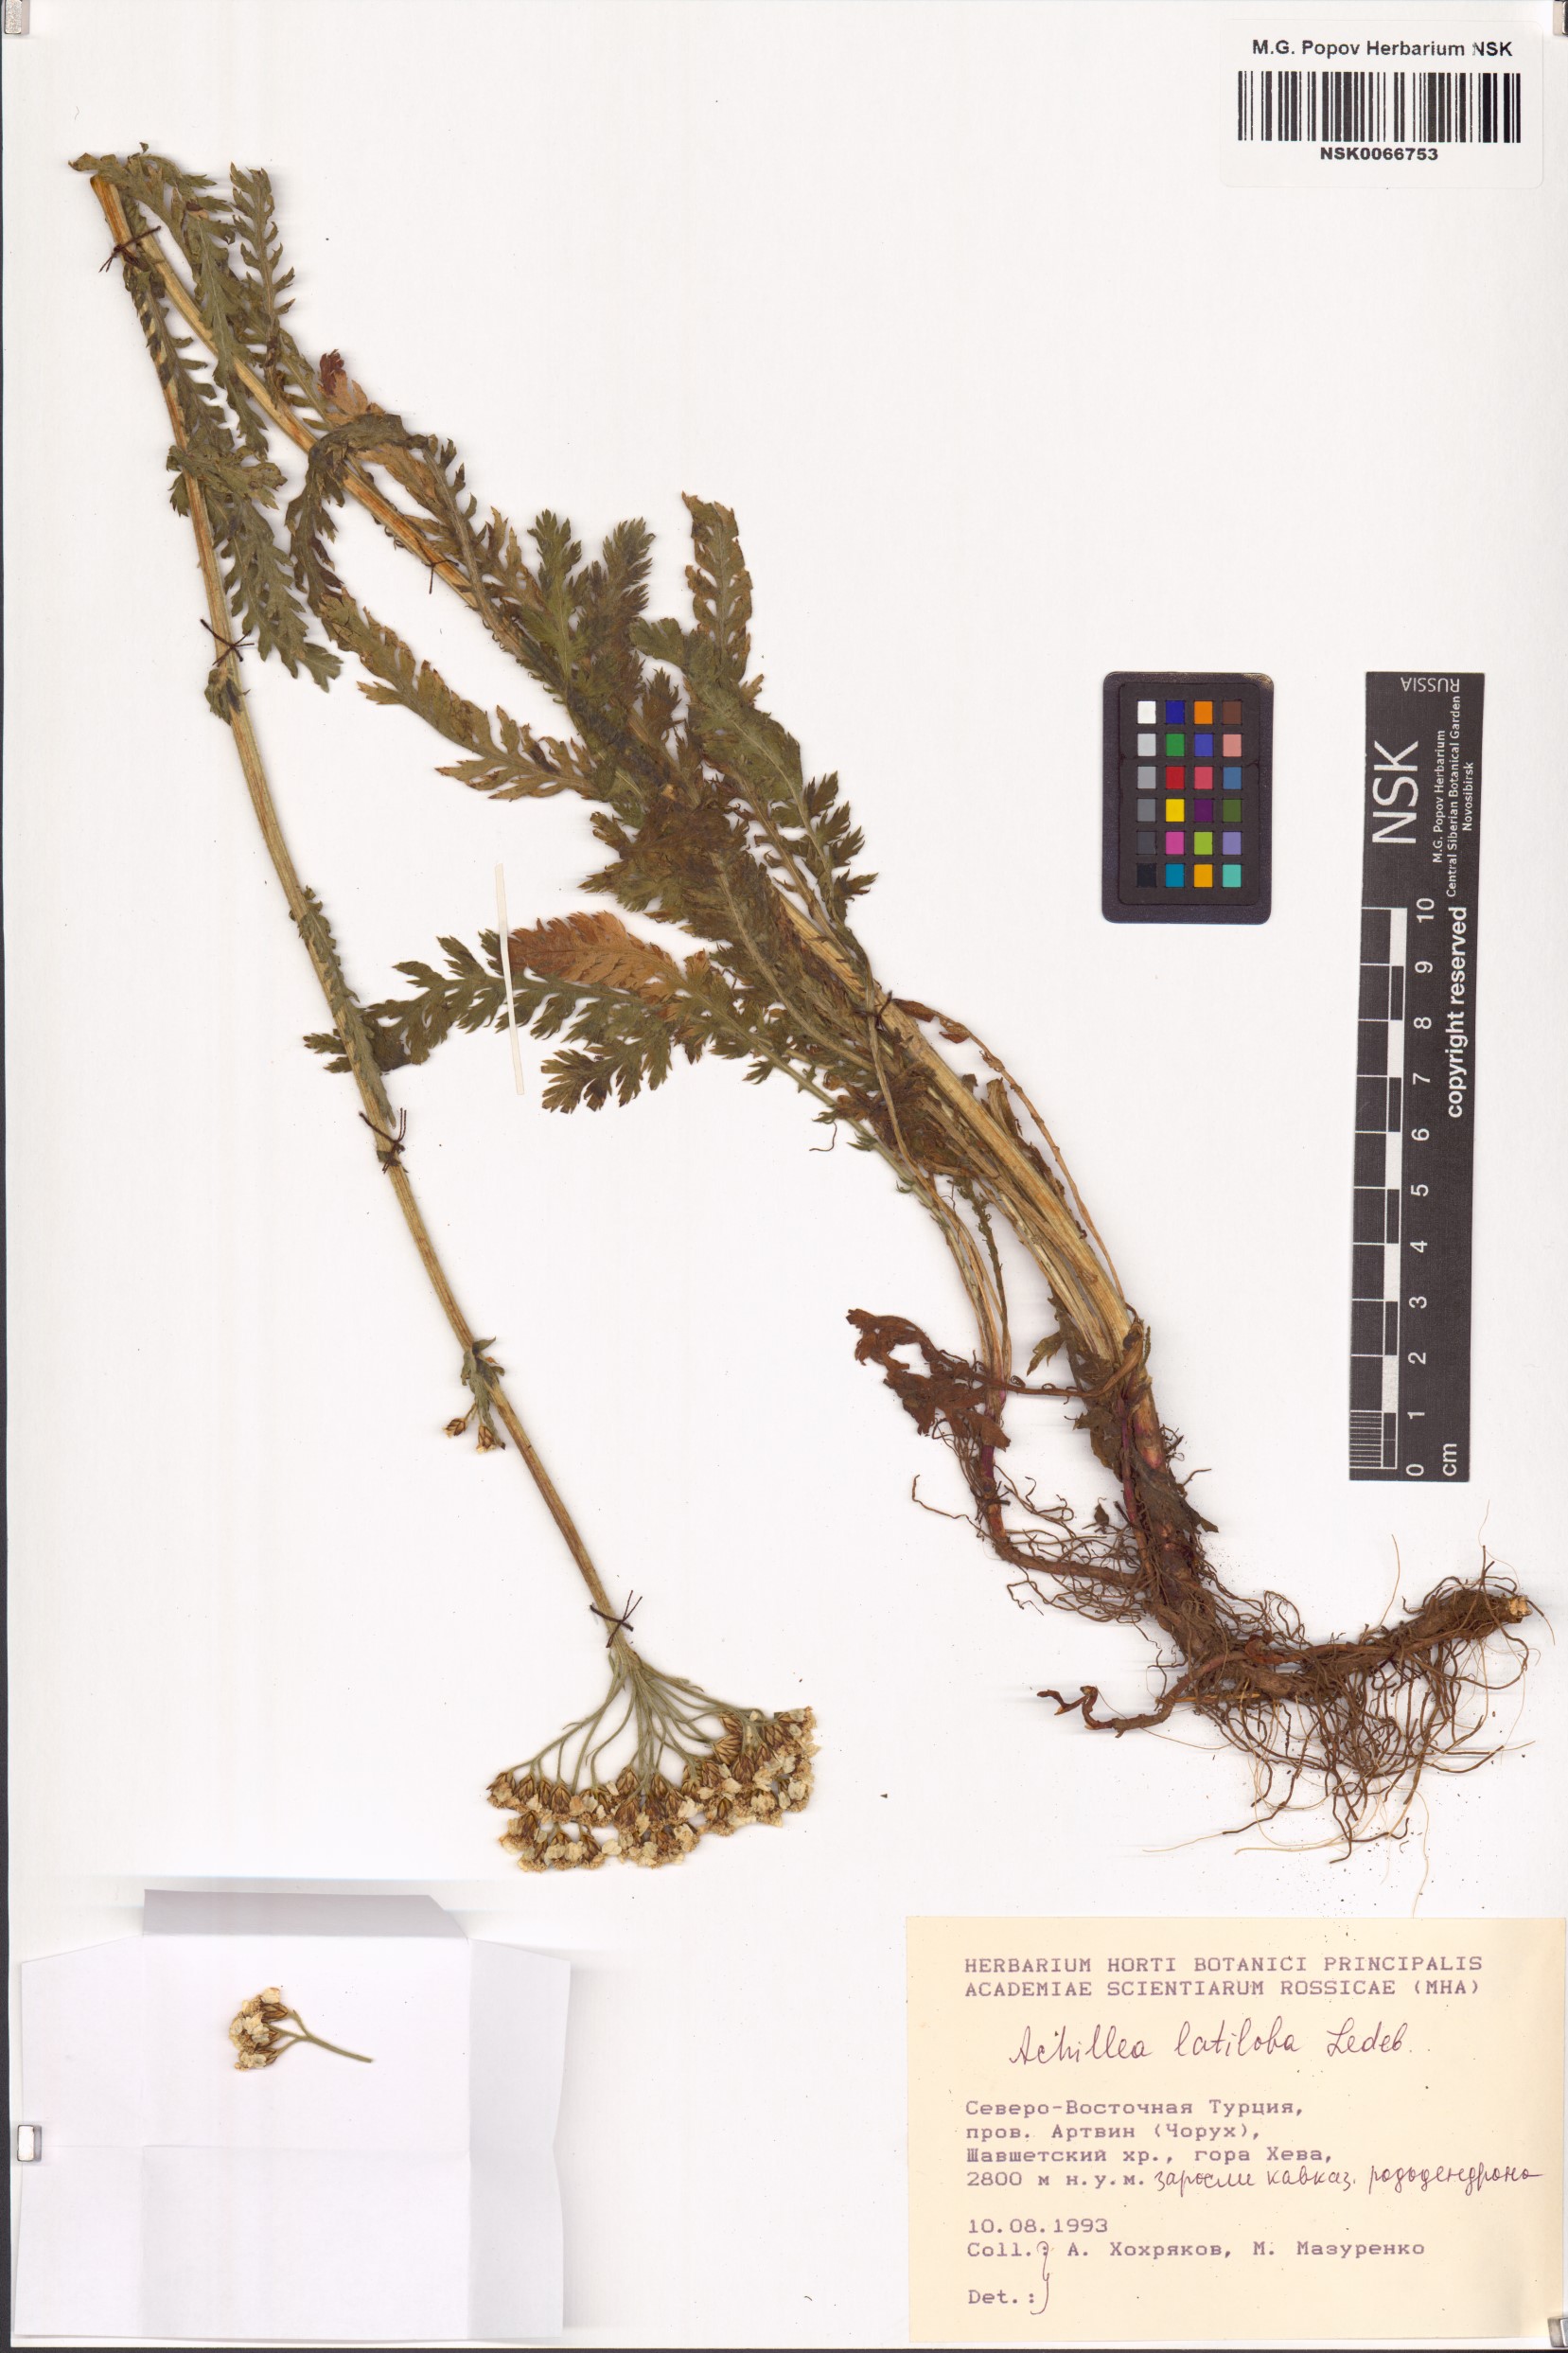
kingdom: Plantae
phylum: Tracheophyta
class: Magnoliopsida
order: Asterales
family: Asteraceae
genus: Achillea
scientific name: Achillea latiloba
